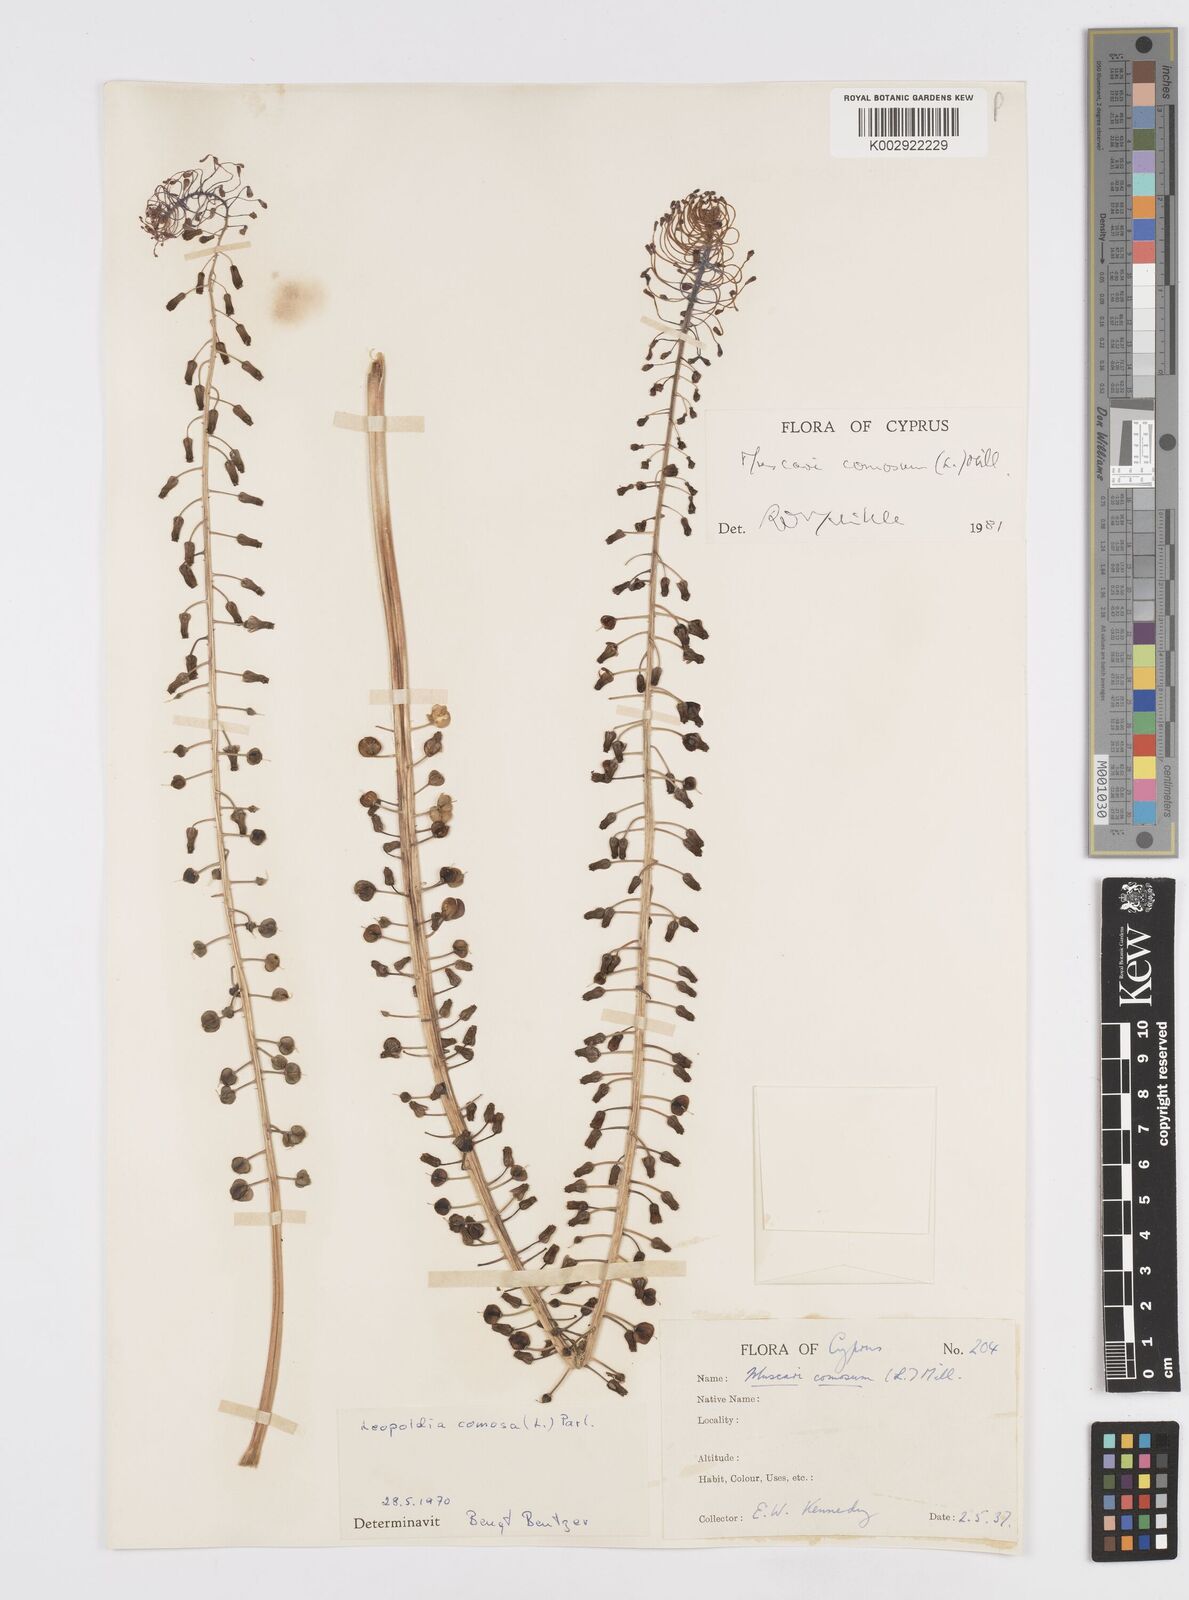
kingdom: Plantae
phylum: Tracheophyta
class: Liliopsida
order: Asparagales
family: Asparagaceae
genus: Muscari
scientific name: Muscari comosum
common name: Tassel hyacinth
